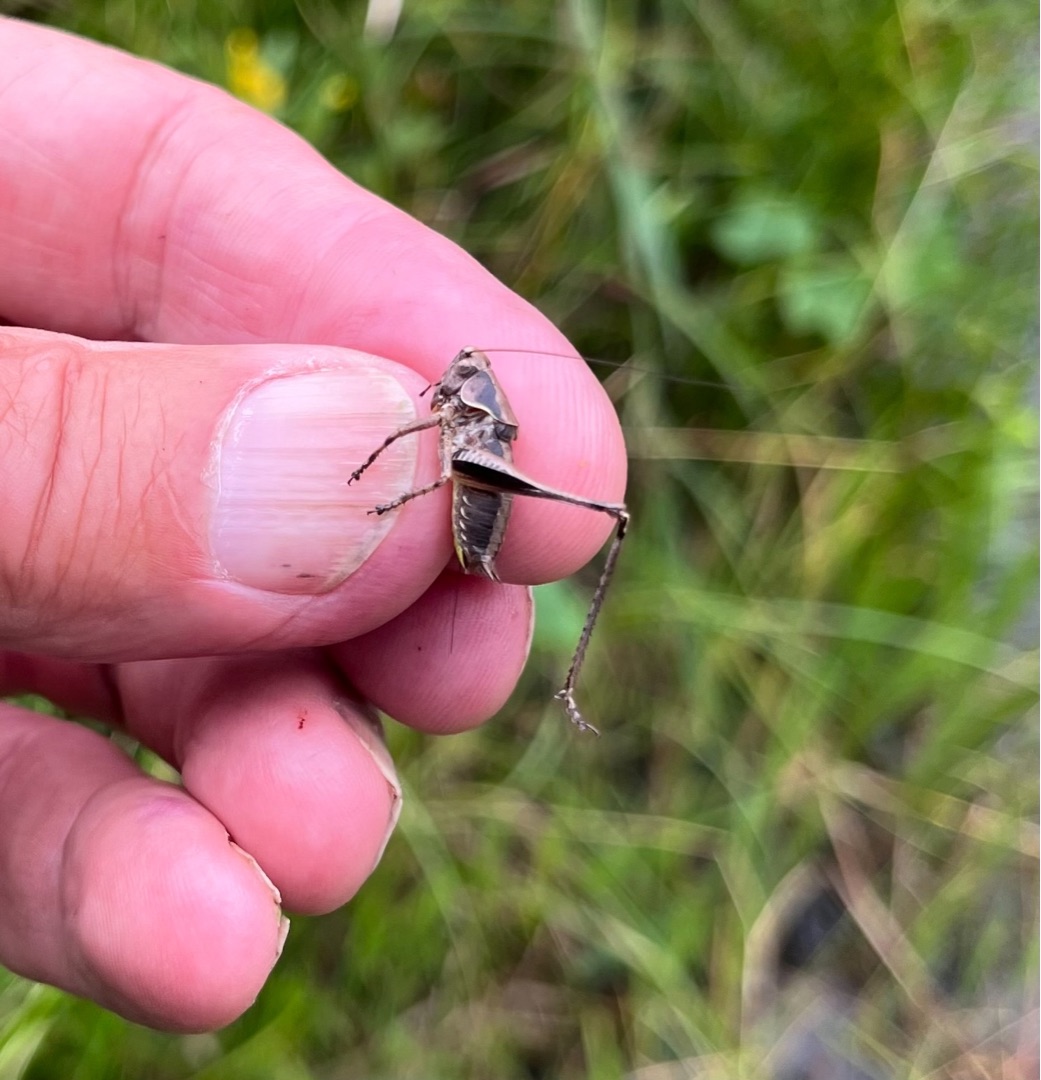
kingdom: Animalia
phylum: Arthropoda
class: Insecta
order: Orthoptera
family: Tettigoniidae
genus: Pholidoptera
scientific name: Pholidoptera griseoaptera
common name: Buskgræshoppe
